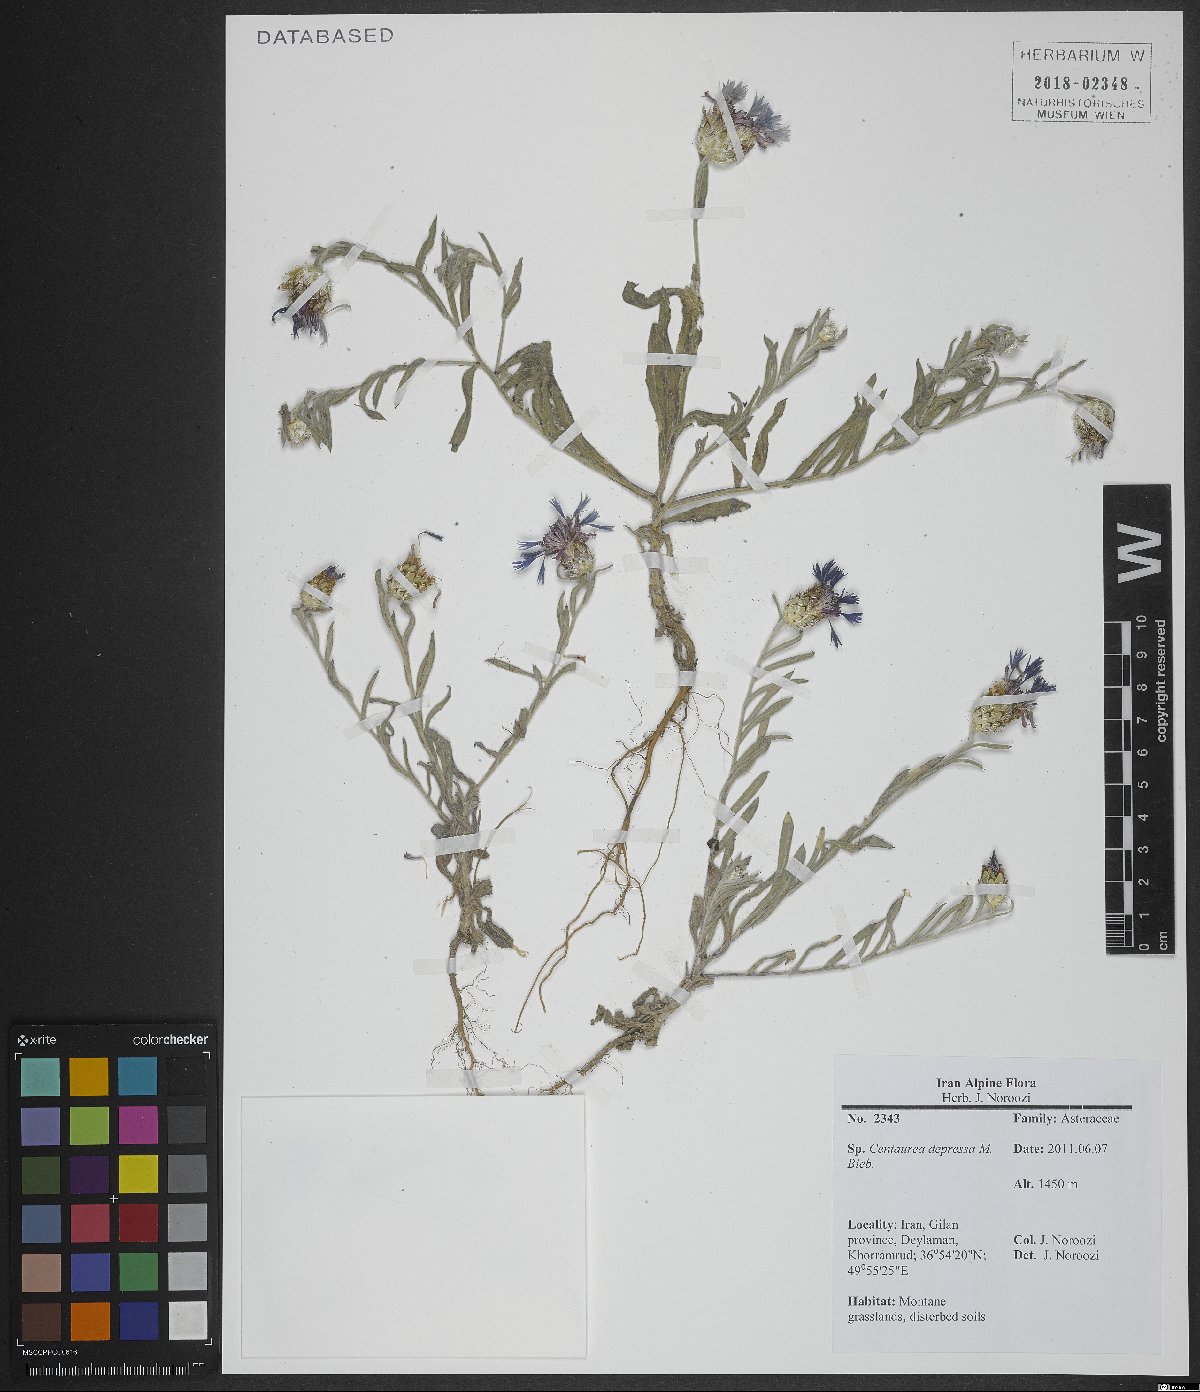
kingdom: Plantae
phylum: Tracheophyta
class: Magnoliopsida
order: Asterales
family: Asteraceae
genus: Centaurea
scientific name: Centaurea depressa
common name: Iranian knapweed
